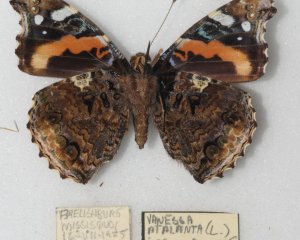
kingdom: Animalia
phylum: Arthropoda
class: Insecta
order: Lepidoptera
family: Nymphalidae
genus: Vanessa
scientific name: Vanessa atalanta
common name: Red Admiral
